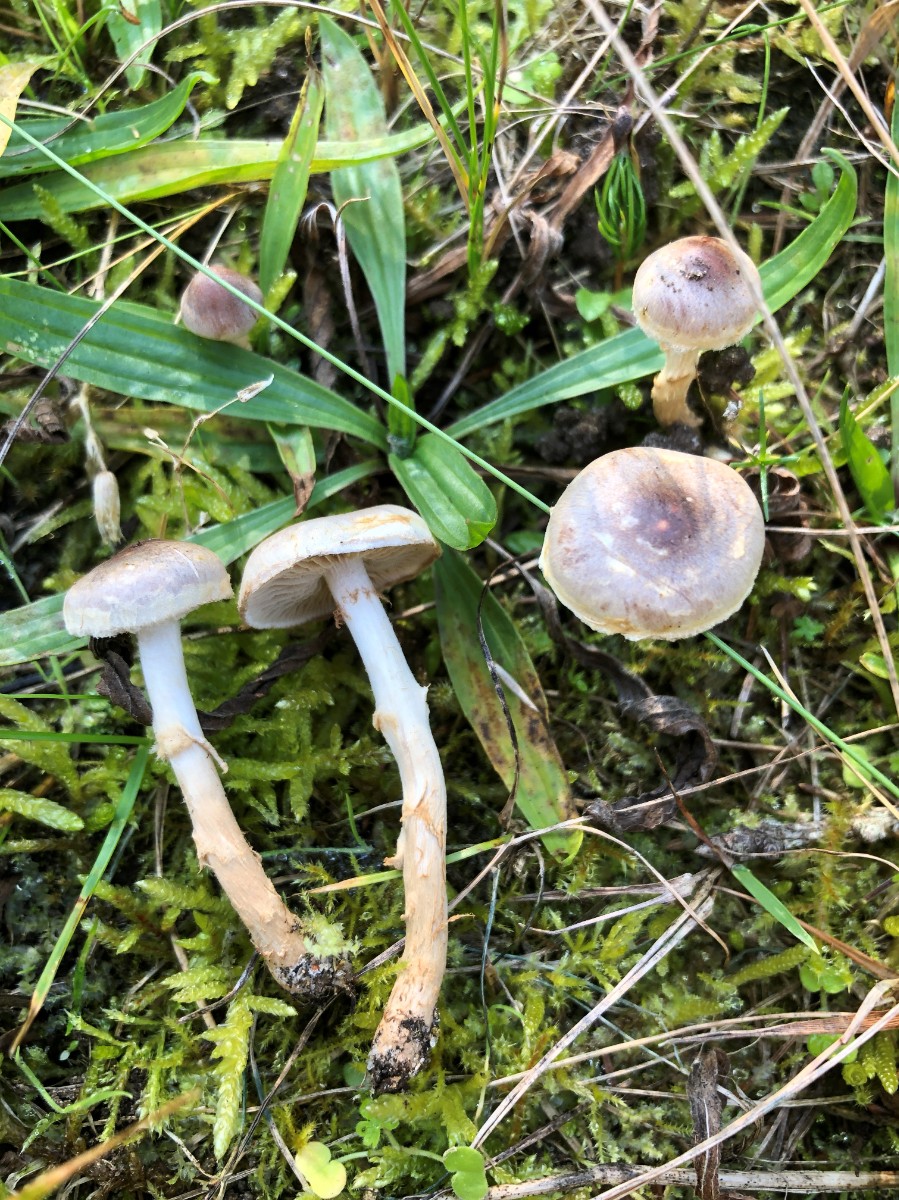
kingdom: Fungi
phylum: Basidiomycota
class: Agaricomycetes
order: Agaricales
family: Hymenogastraceae
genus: Hebeloma
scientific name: Hebeloma mesophaeum
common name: lerbrun tåreblad
